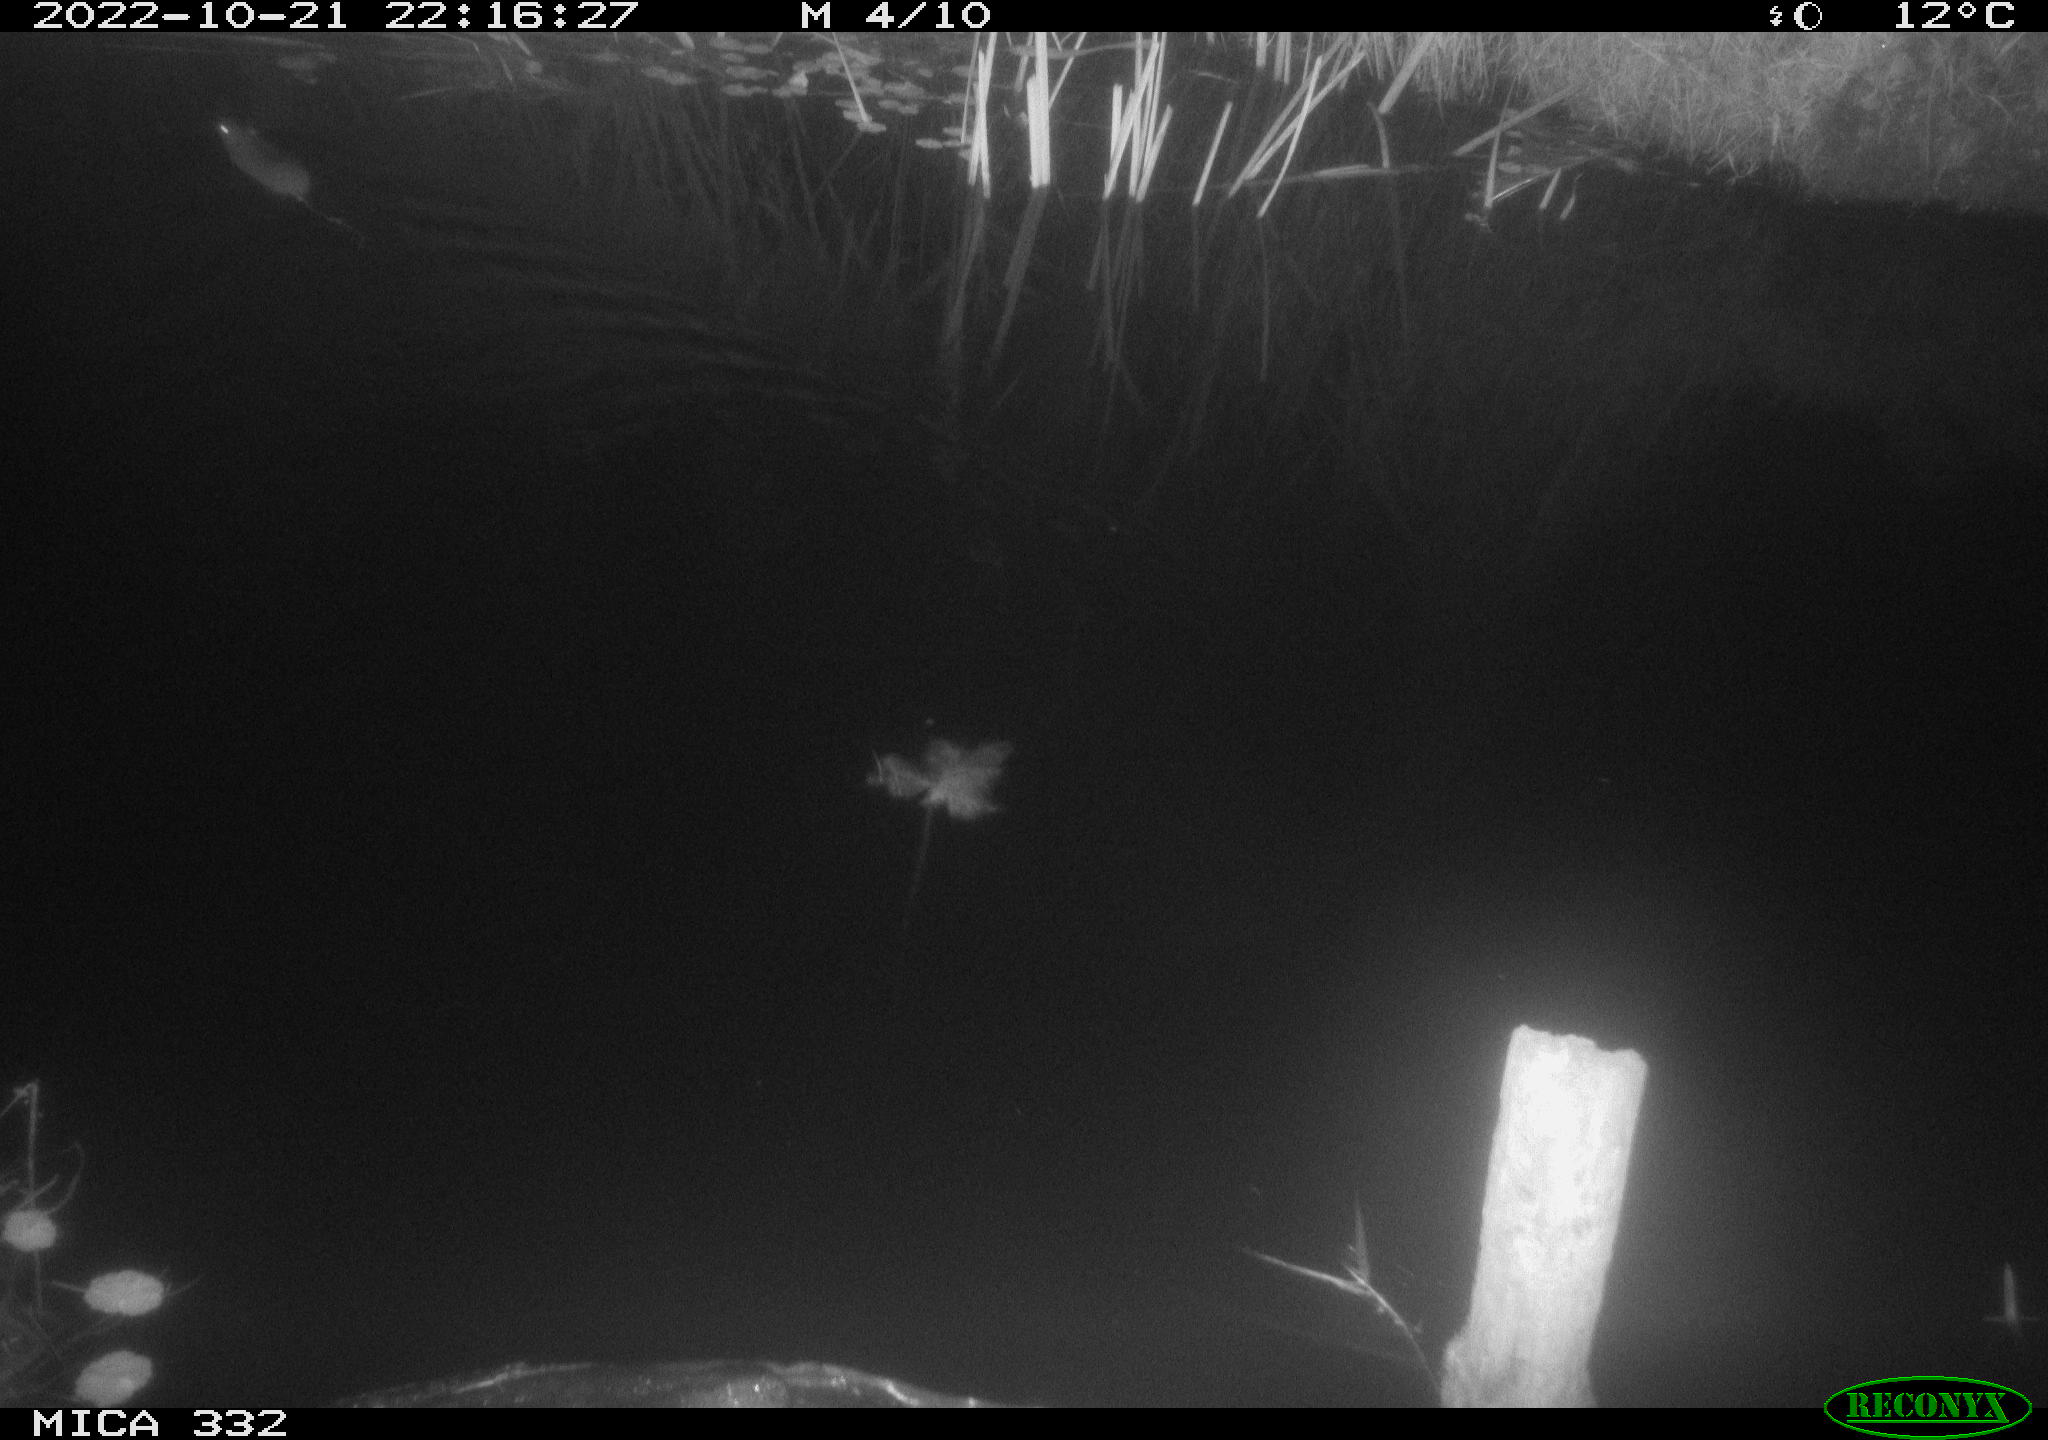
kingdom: Animalia
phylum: Chordata
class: Mammalia
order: Rodentia
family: Muridae
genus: Rattus
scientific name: Rattus norvegicus
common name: Brown rat
